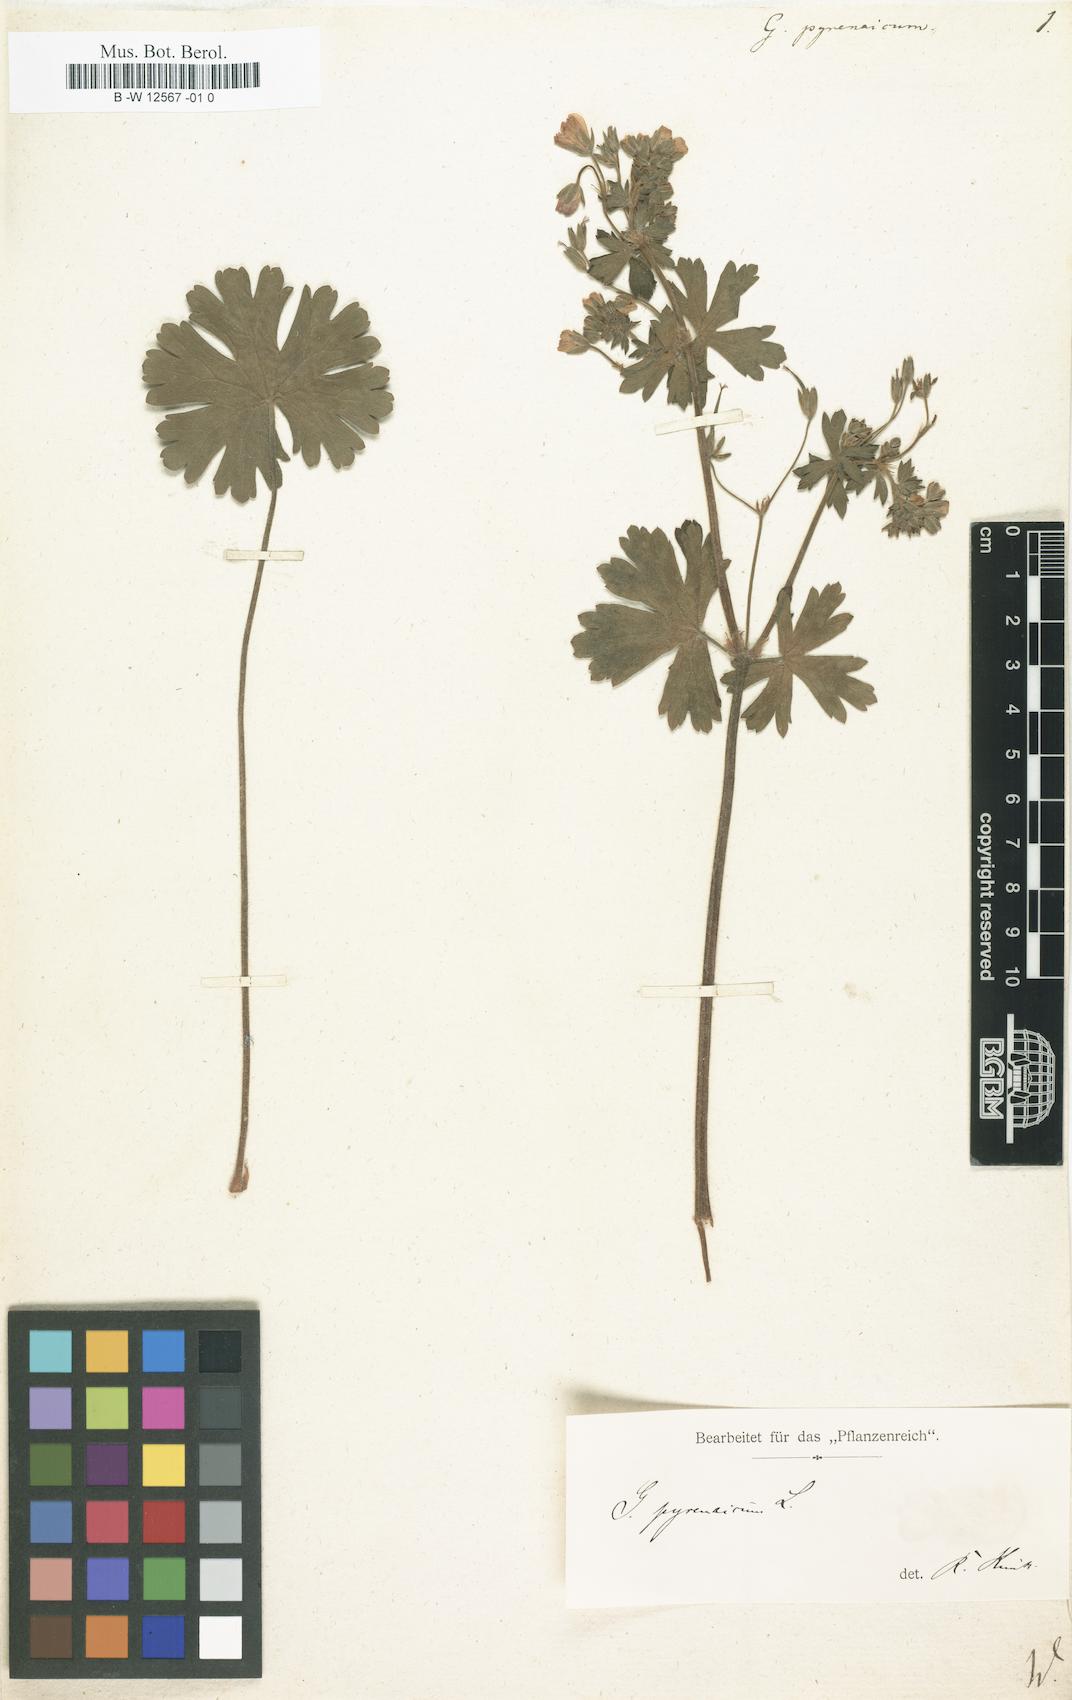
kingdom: Plantae
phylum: Tracheophyta
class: Magnoliopsida
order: Geraniales
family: Geraniaceae
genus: Geranium
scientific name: Geranium pyrenaicum
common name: Hedgerow crane's-bill
